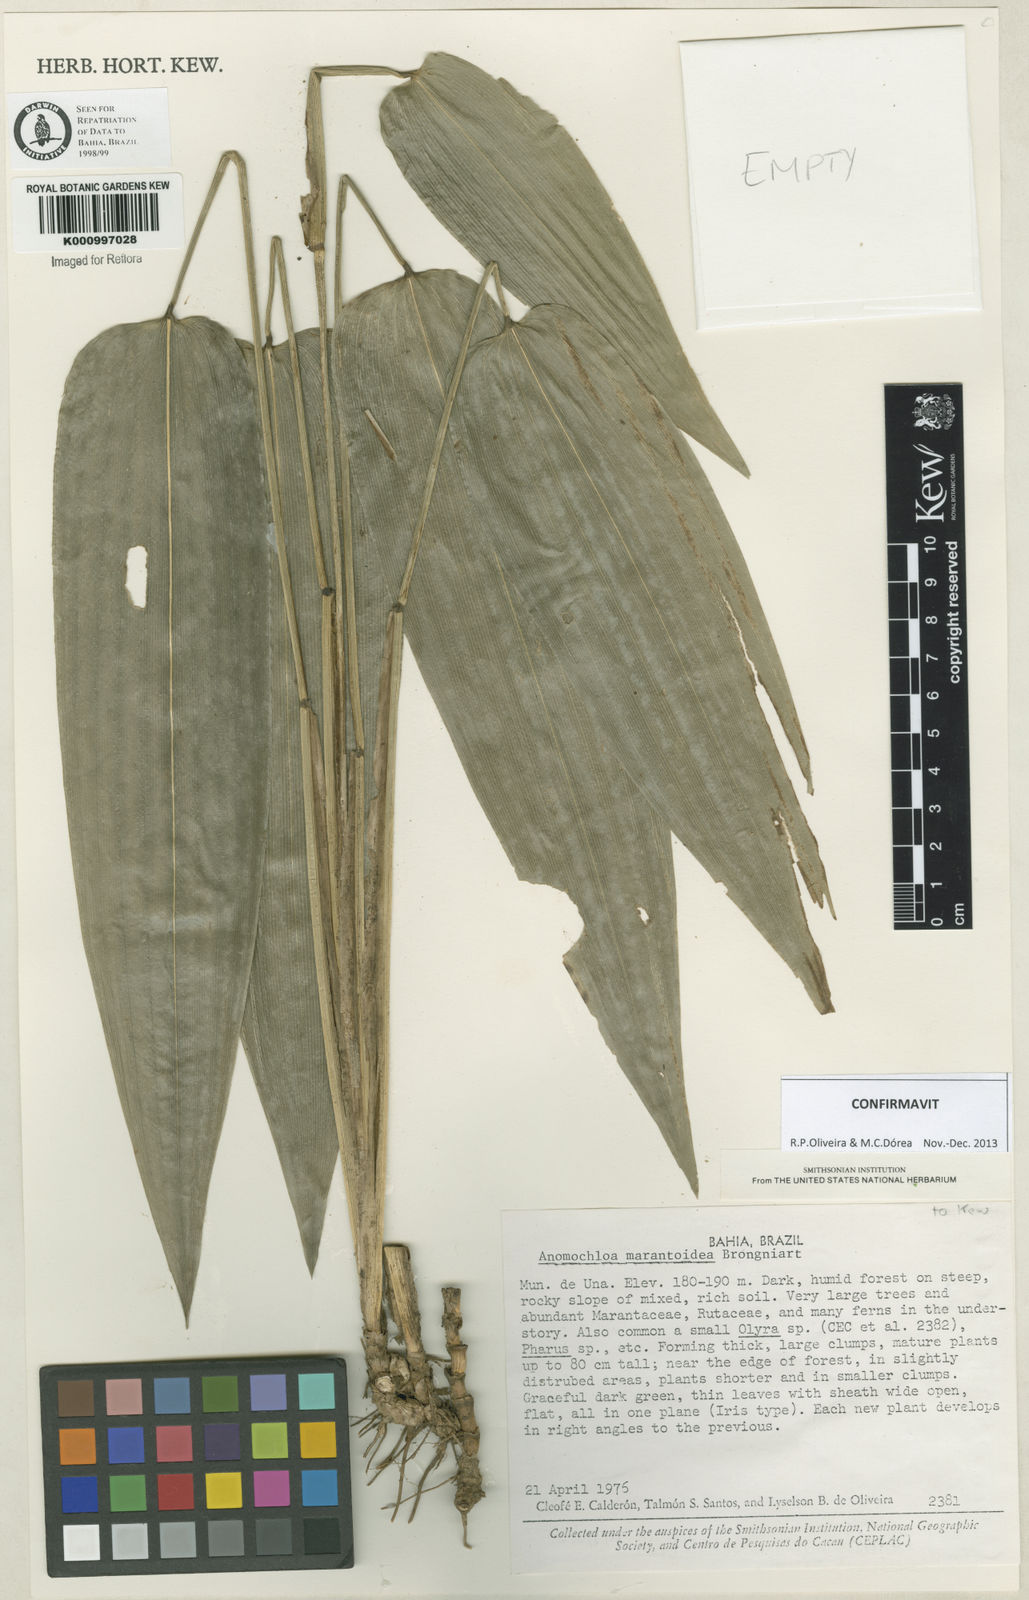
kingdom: Plantae
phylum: Tracheophyta
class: Liliopsida
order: Poales
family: Poaceae
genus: Anomochloa
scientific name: Anomochloa marantoidea
